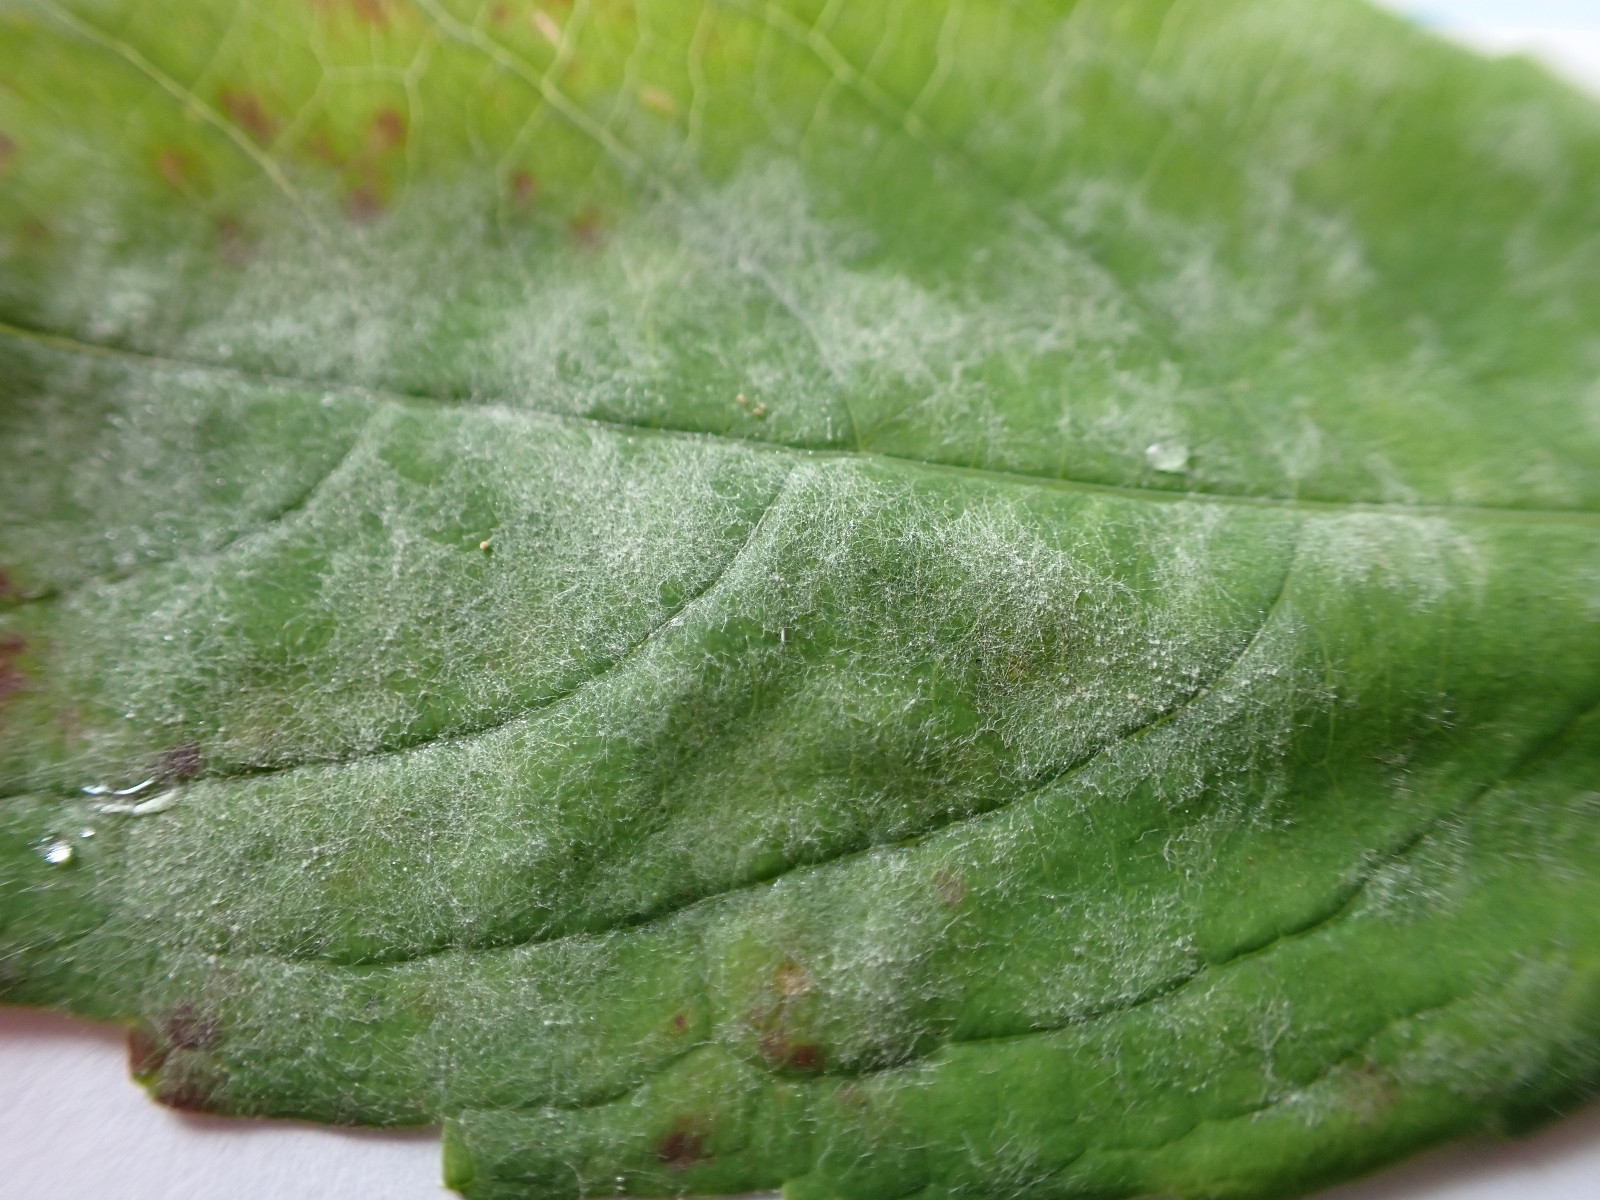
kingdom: Fungi
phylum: Ascomycota
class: Leotiomycetes
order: Helotiales
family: Erysiphaceae
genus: Podosphaera
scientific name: Podosphaera balsaminae
